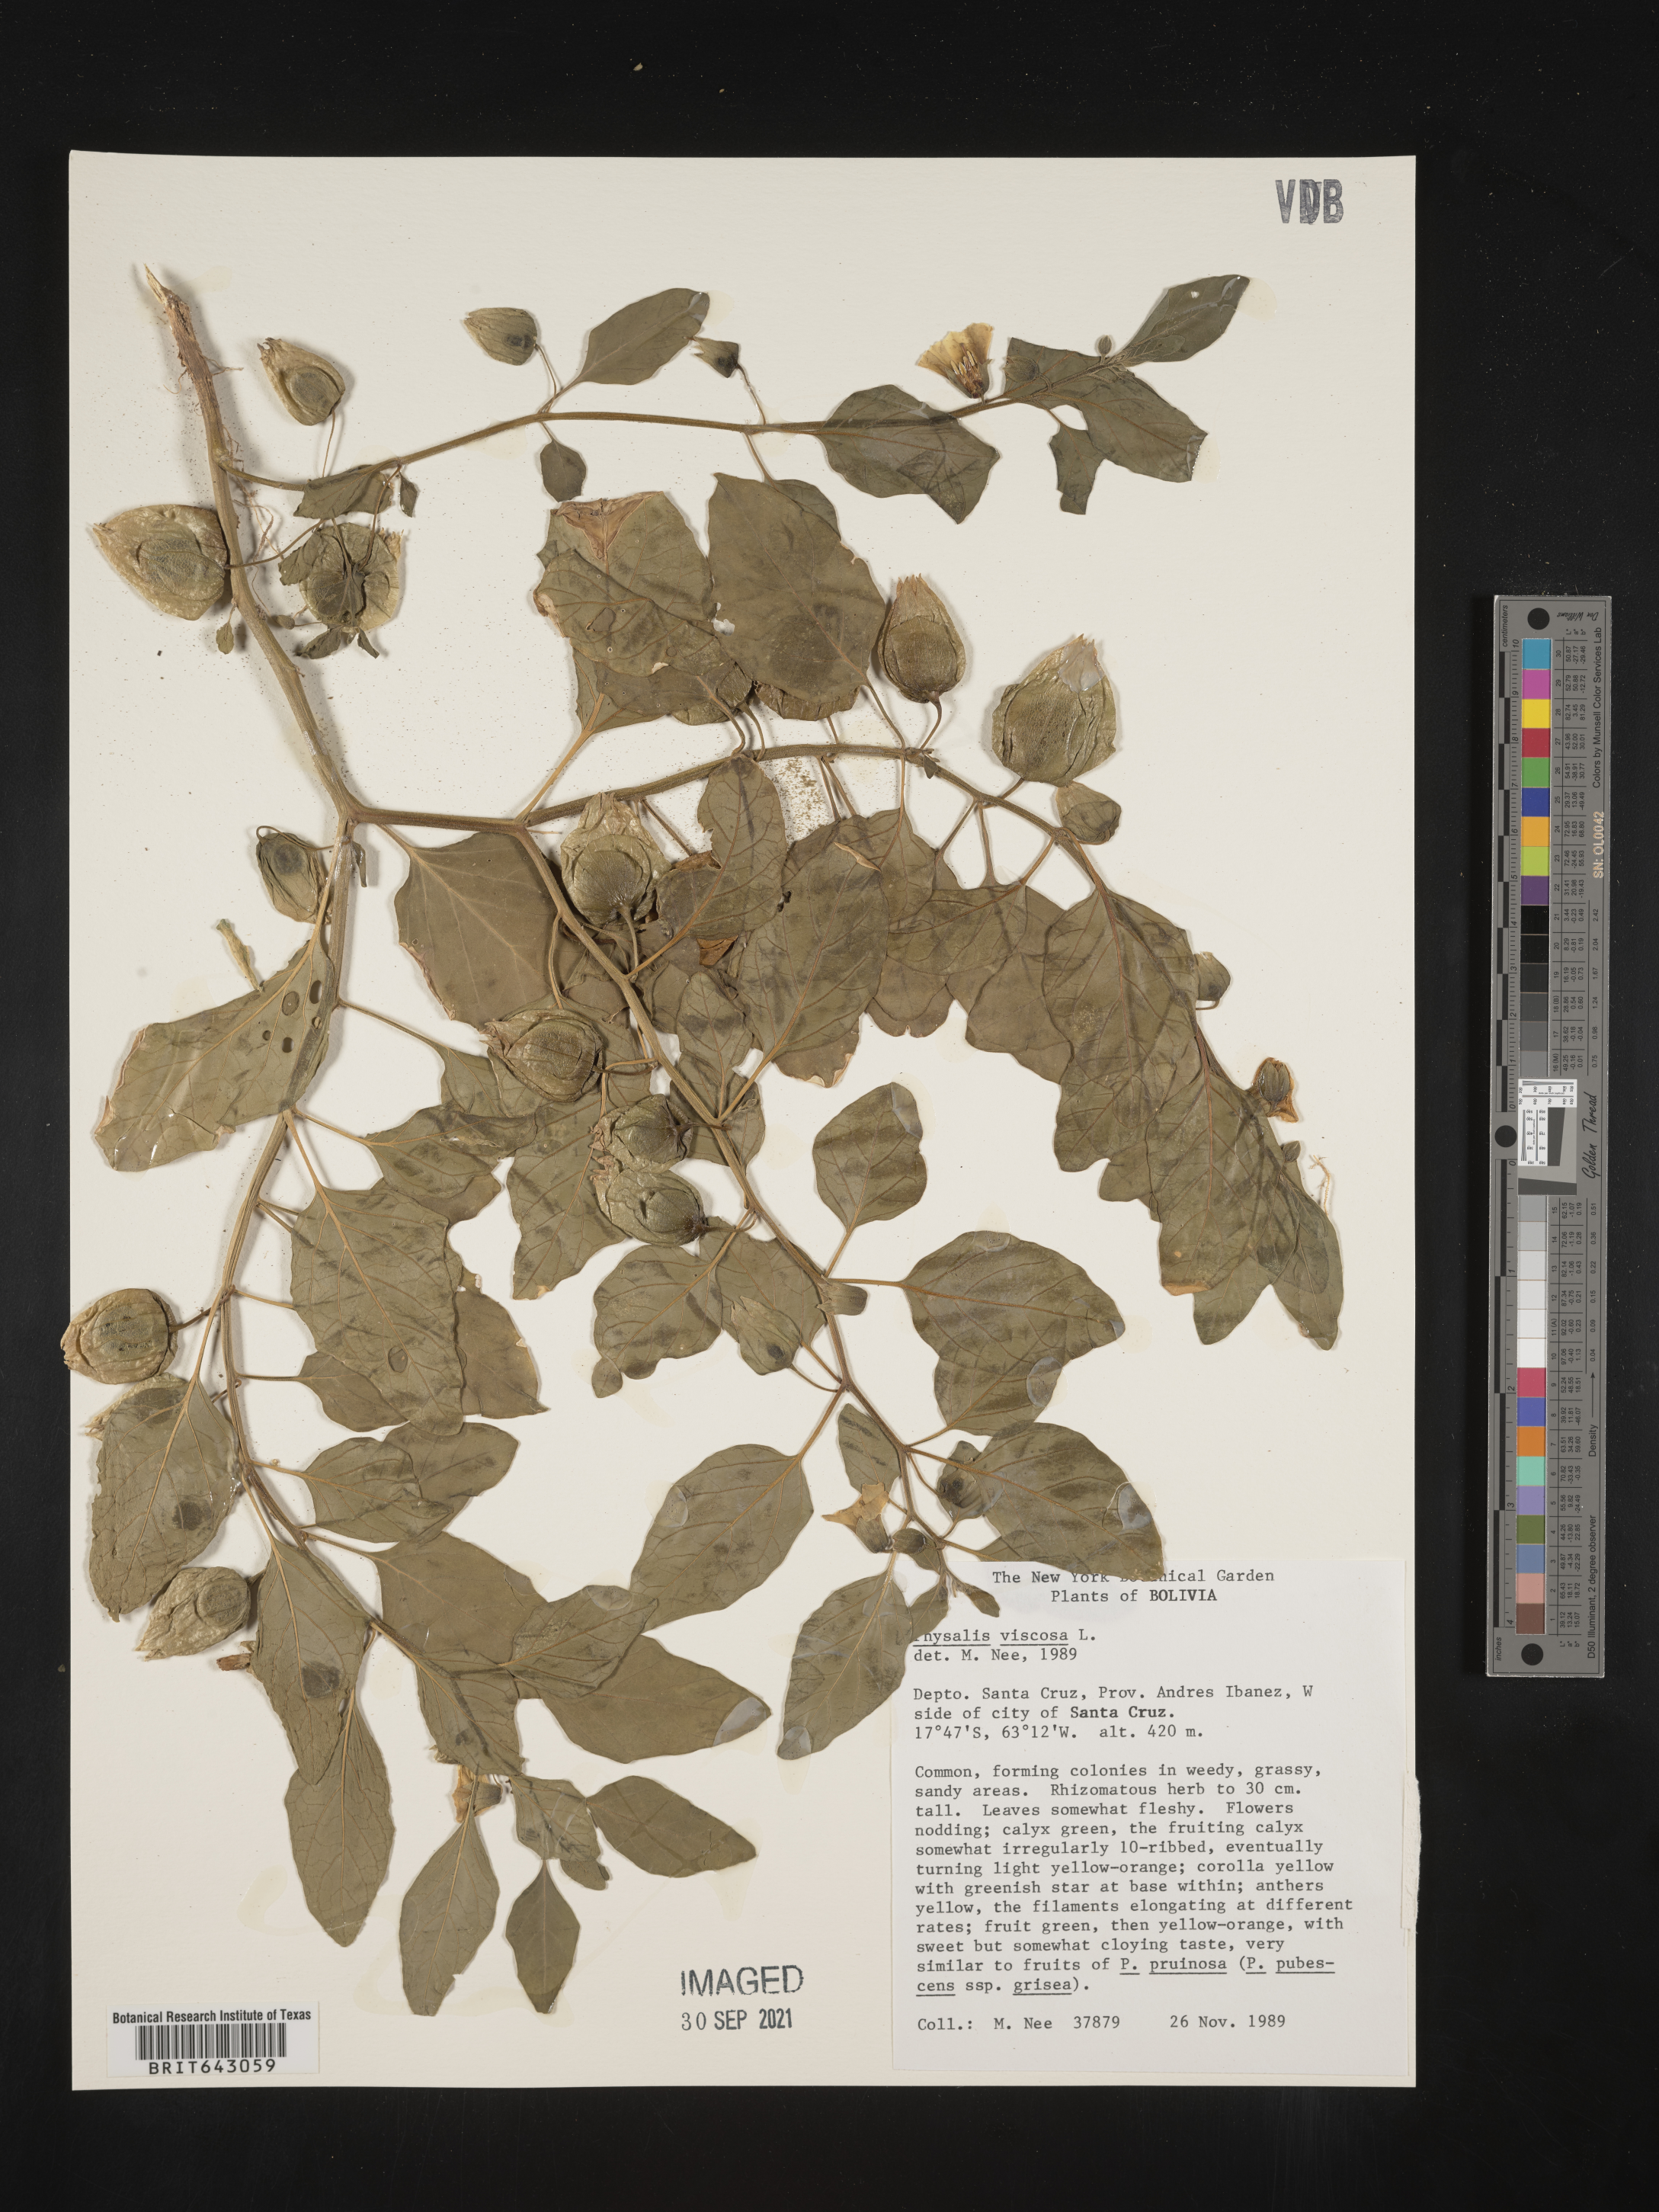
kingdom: Plantae
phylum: Tracheophyta
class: Magnoliopsida
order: Solanales
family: Solanaceae
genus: Physalis
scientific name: Physalis
